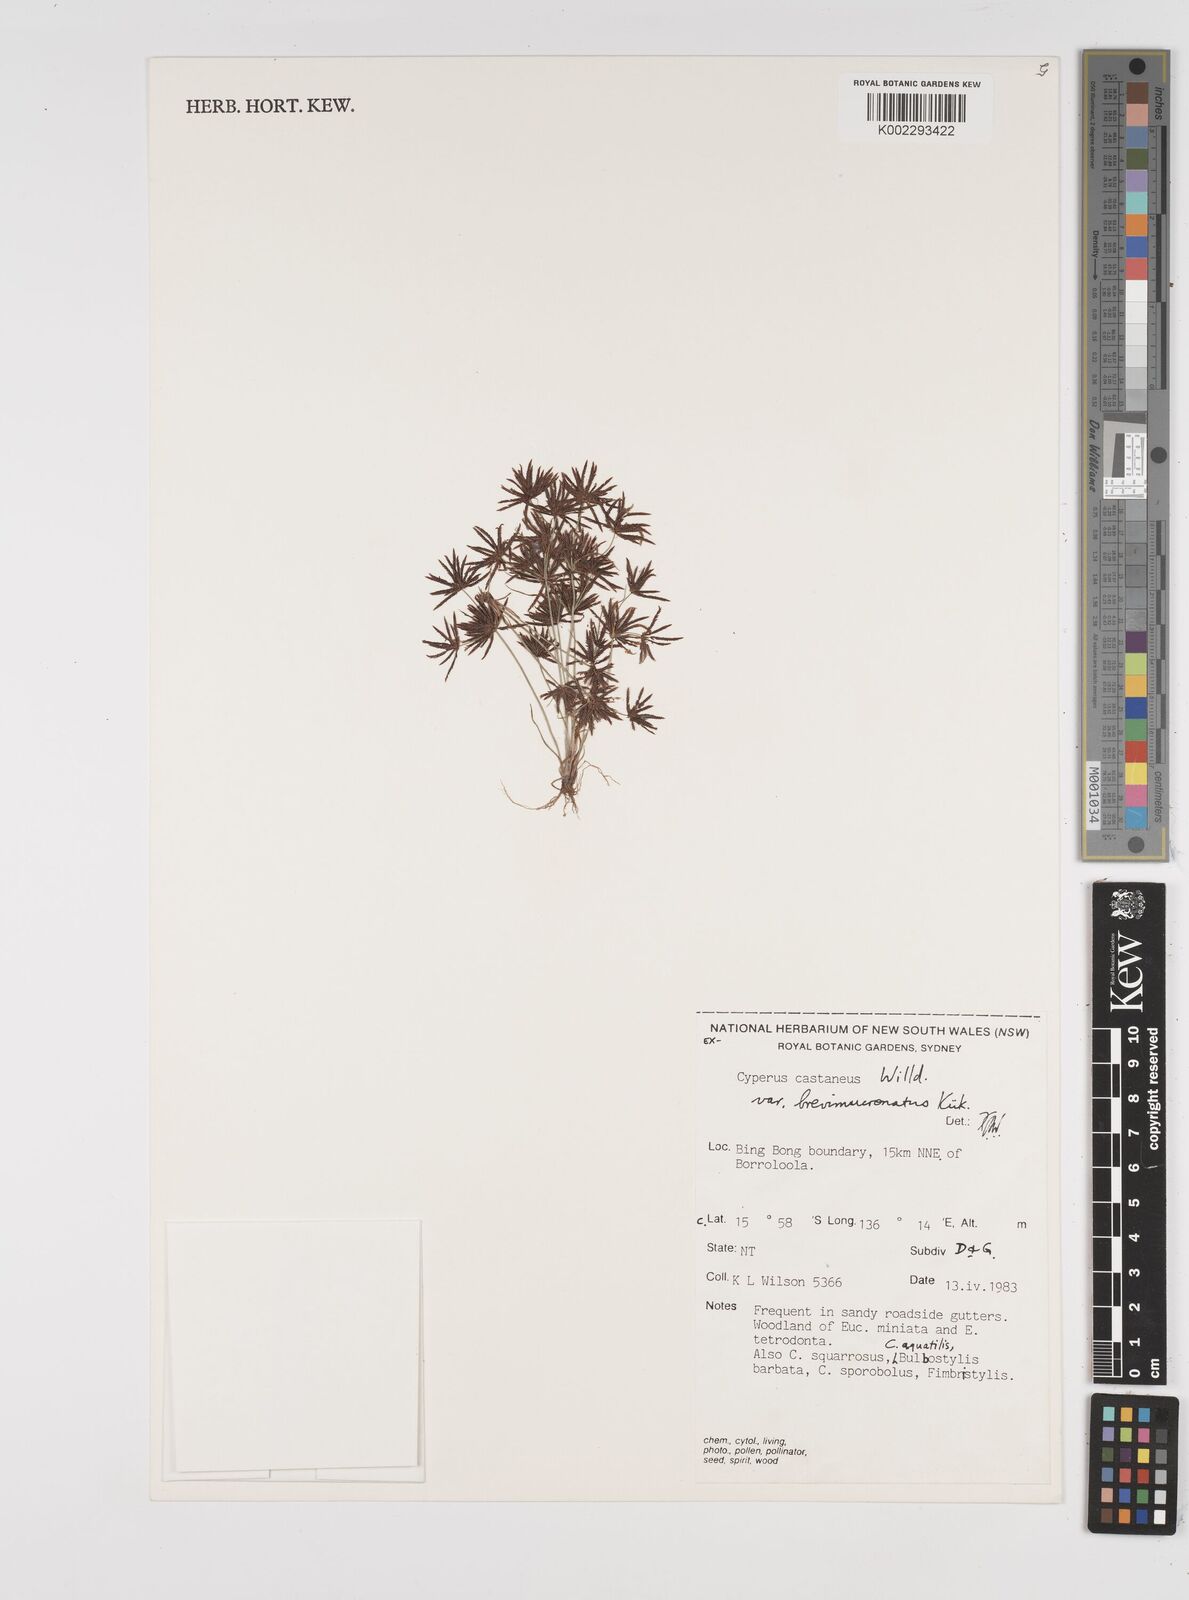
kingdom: Plantae
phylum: Tracheophyta
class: Liliopsida
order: Poales
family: Cyperaceae
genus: Cyperus
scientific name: Cyperus castaneus
